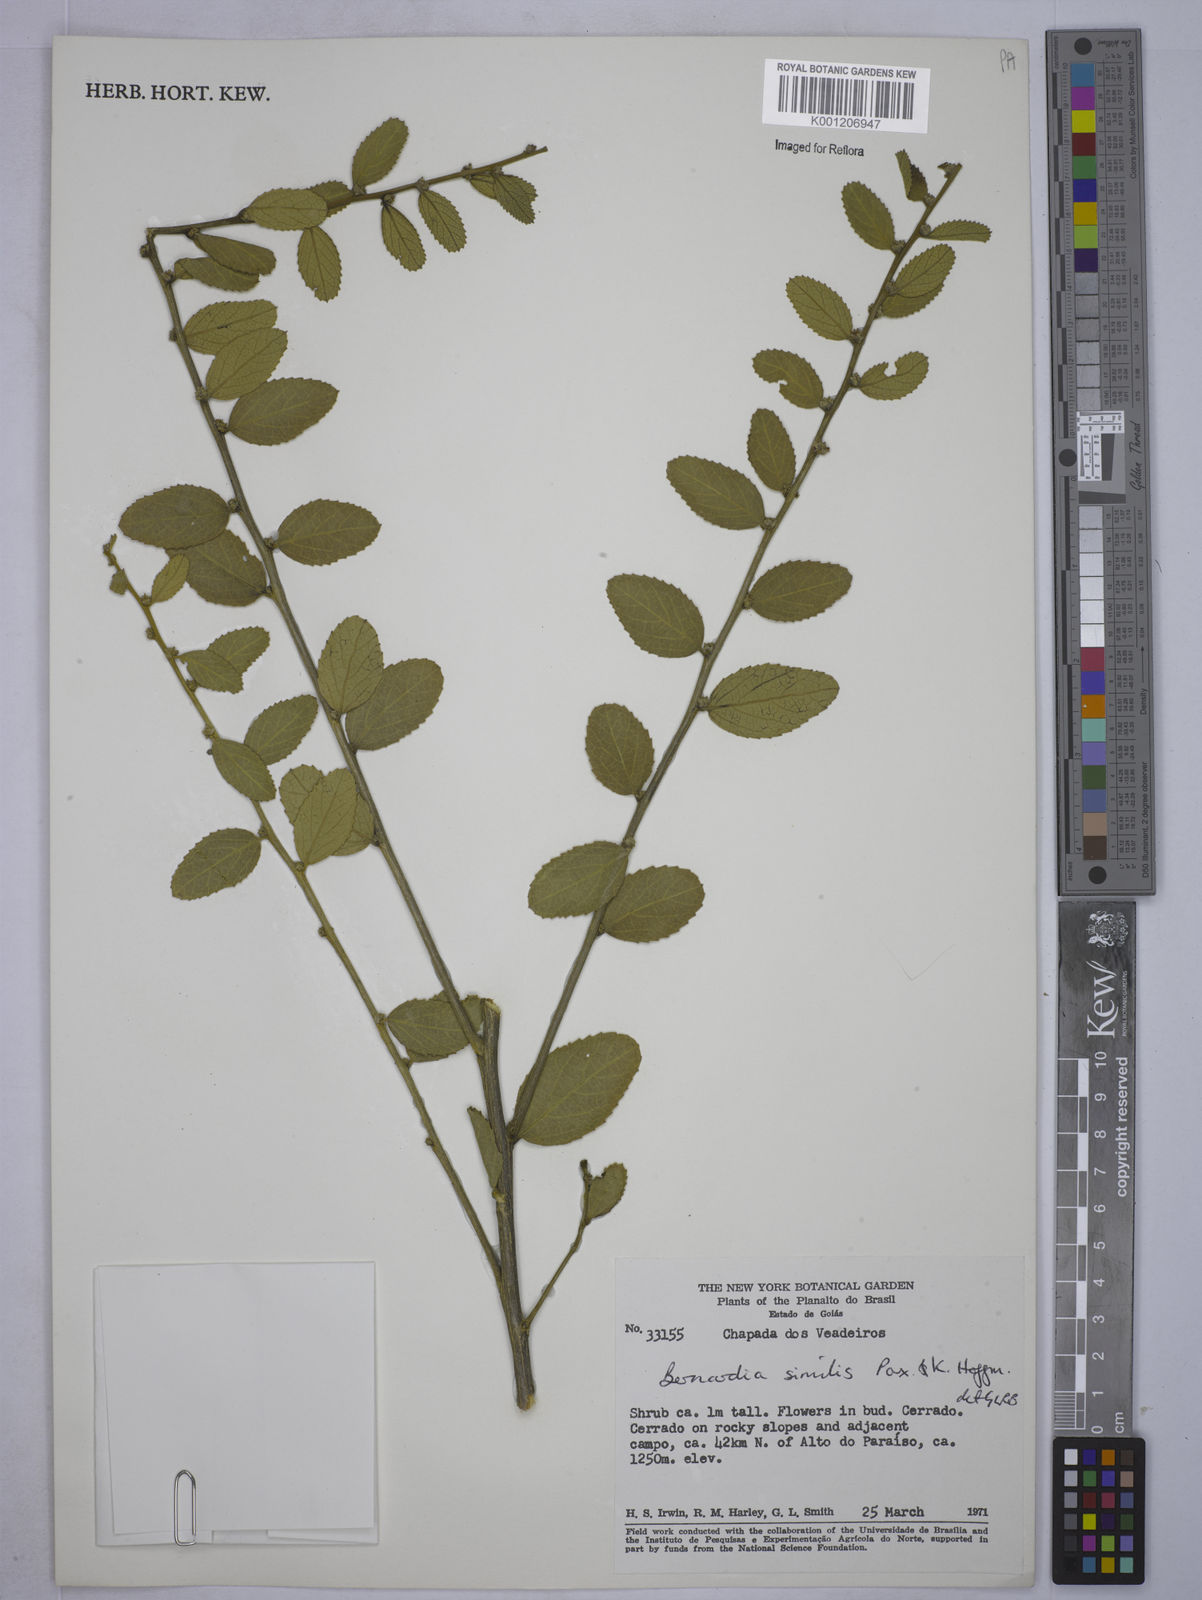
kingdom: Plantae
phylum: Tracheophyta
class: Magnoliopsida
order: Malpighiales
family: Euphorbiaceae
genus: Bernardia
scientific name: Bernardia gardneri
